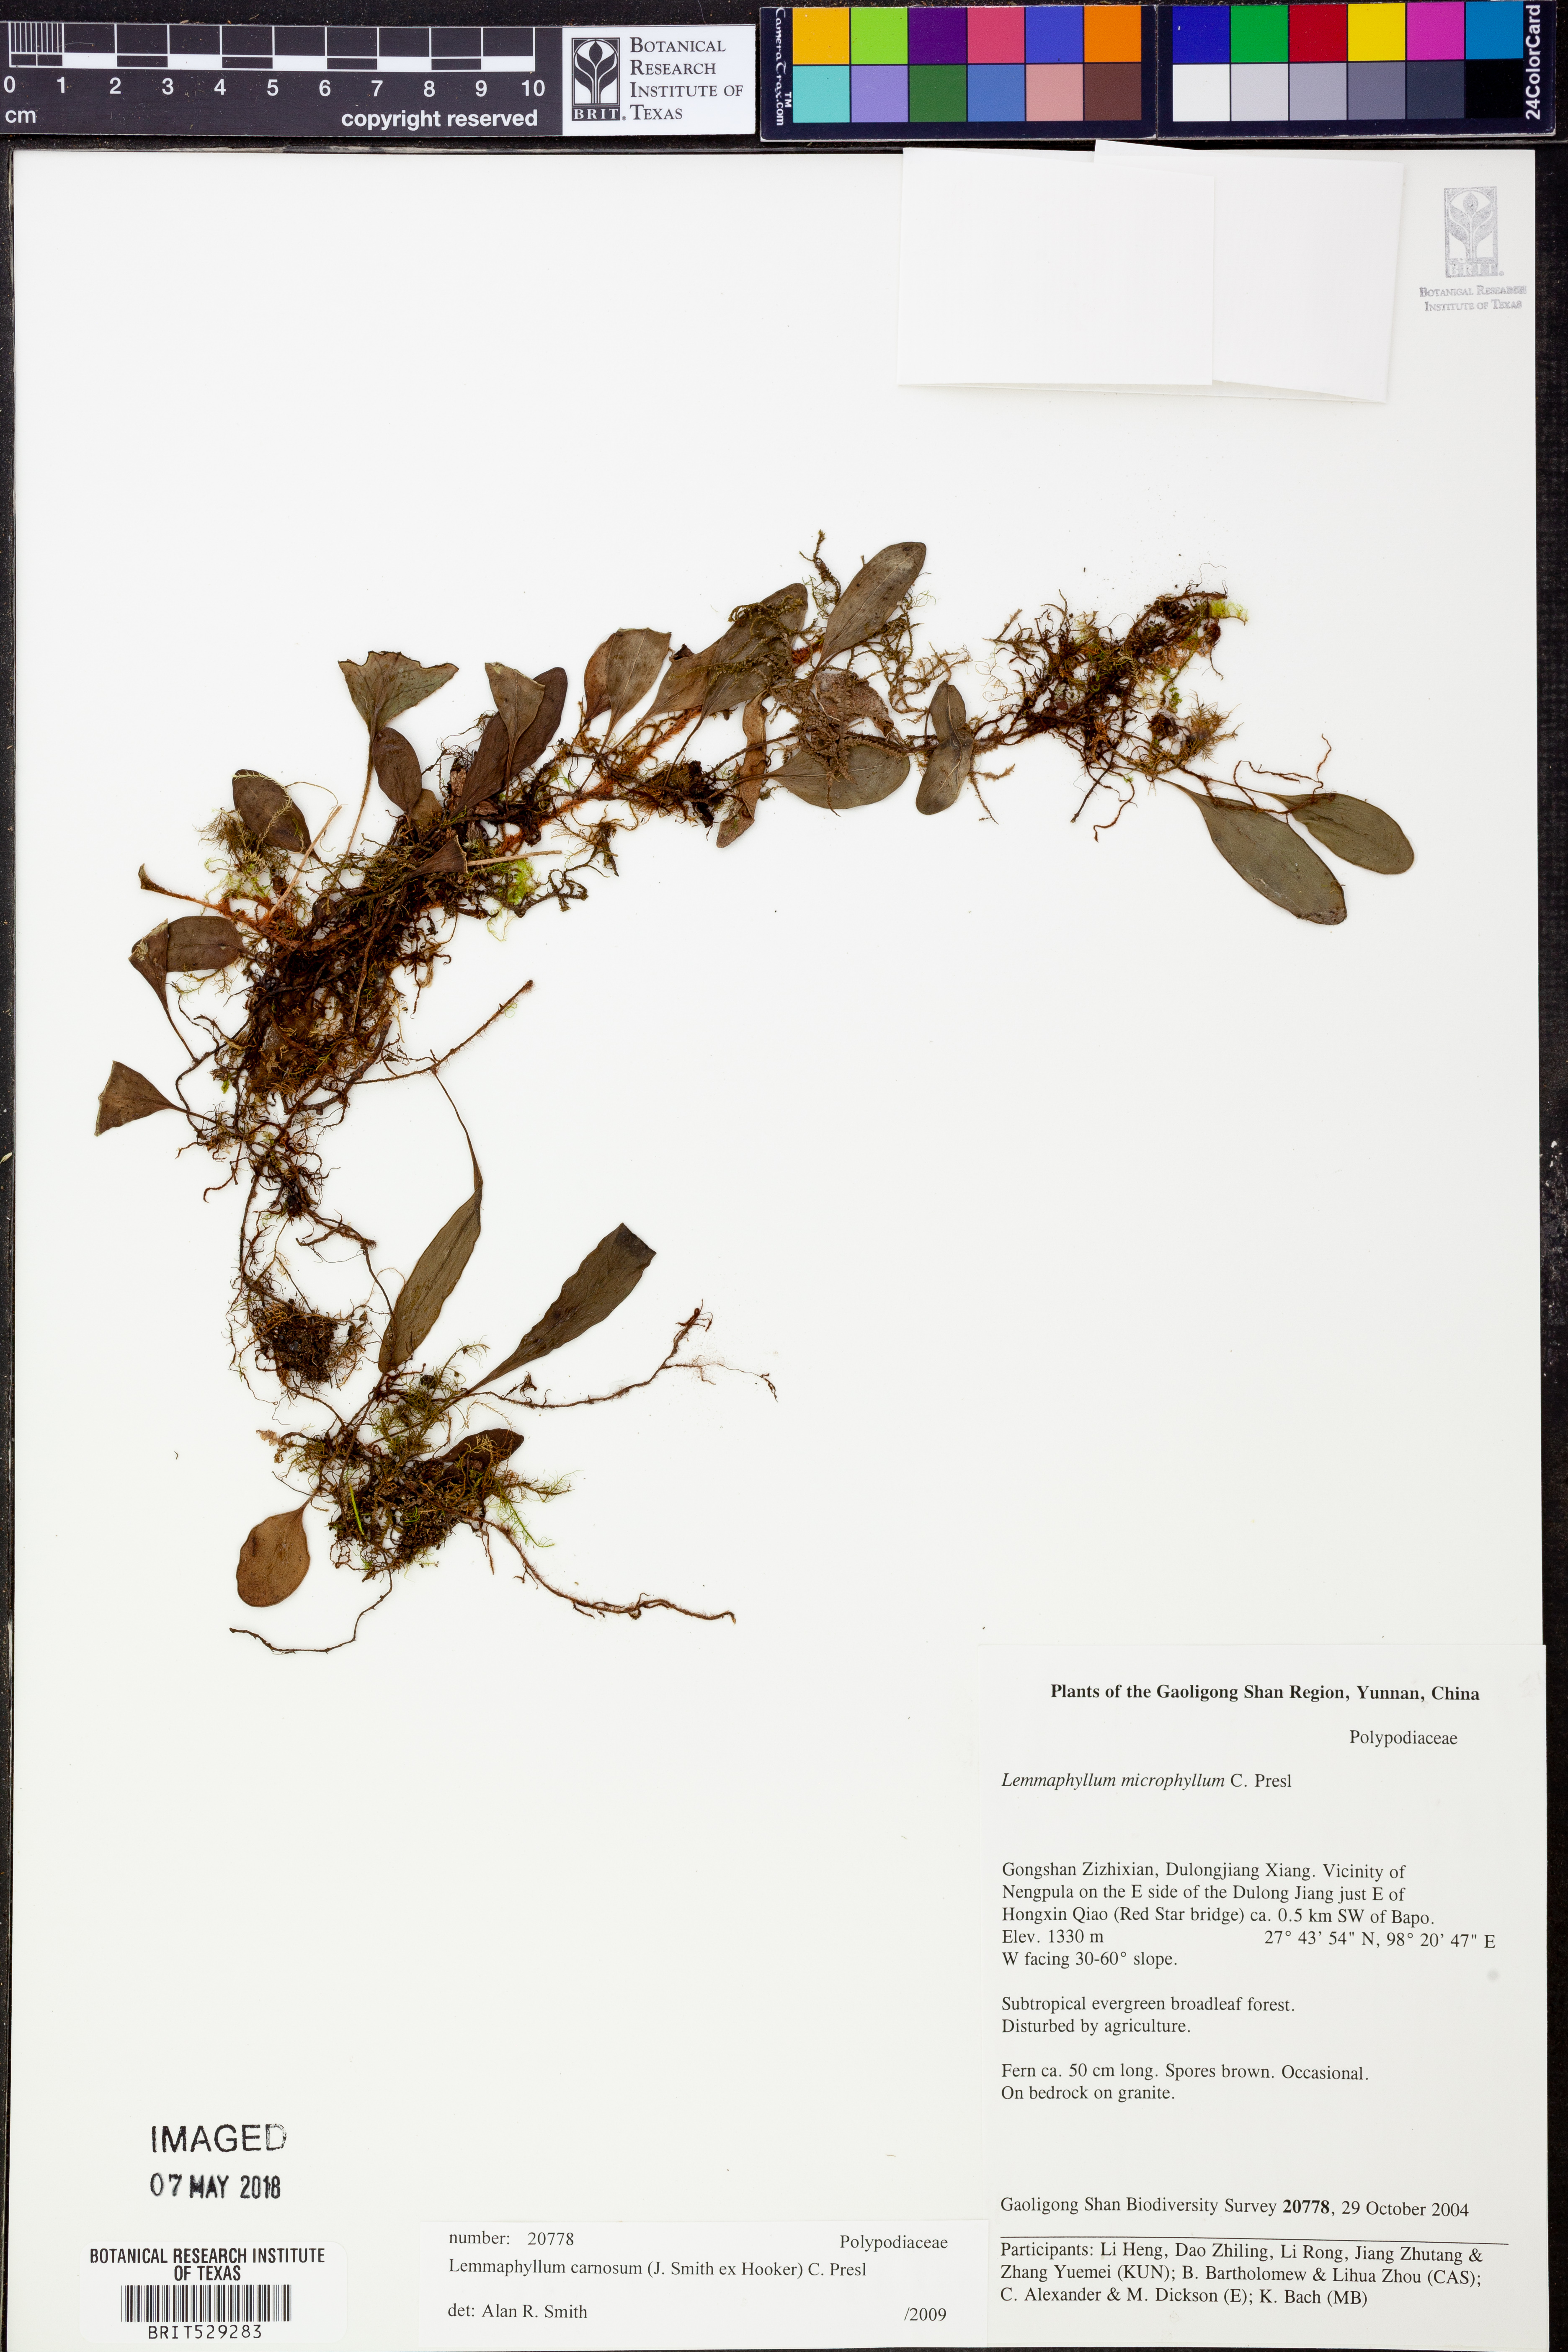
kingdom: Plantae
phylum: Tracheophyta
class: Polypodiopsida
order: Polypodiales
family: Polypodiaceae
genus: Lepisorus
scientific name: Lepisorus carnosus
